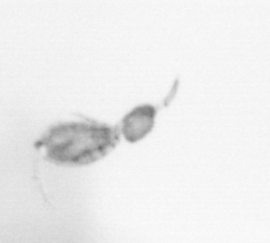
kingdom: Animalia
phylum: Arthropoda
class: Copepoda
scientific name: Copepoda
